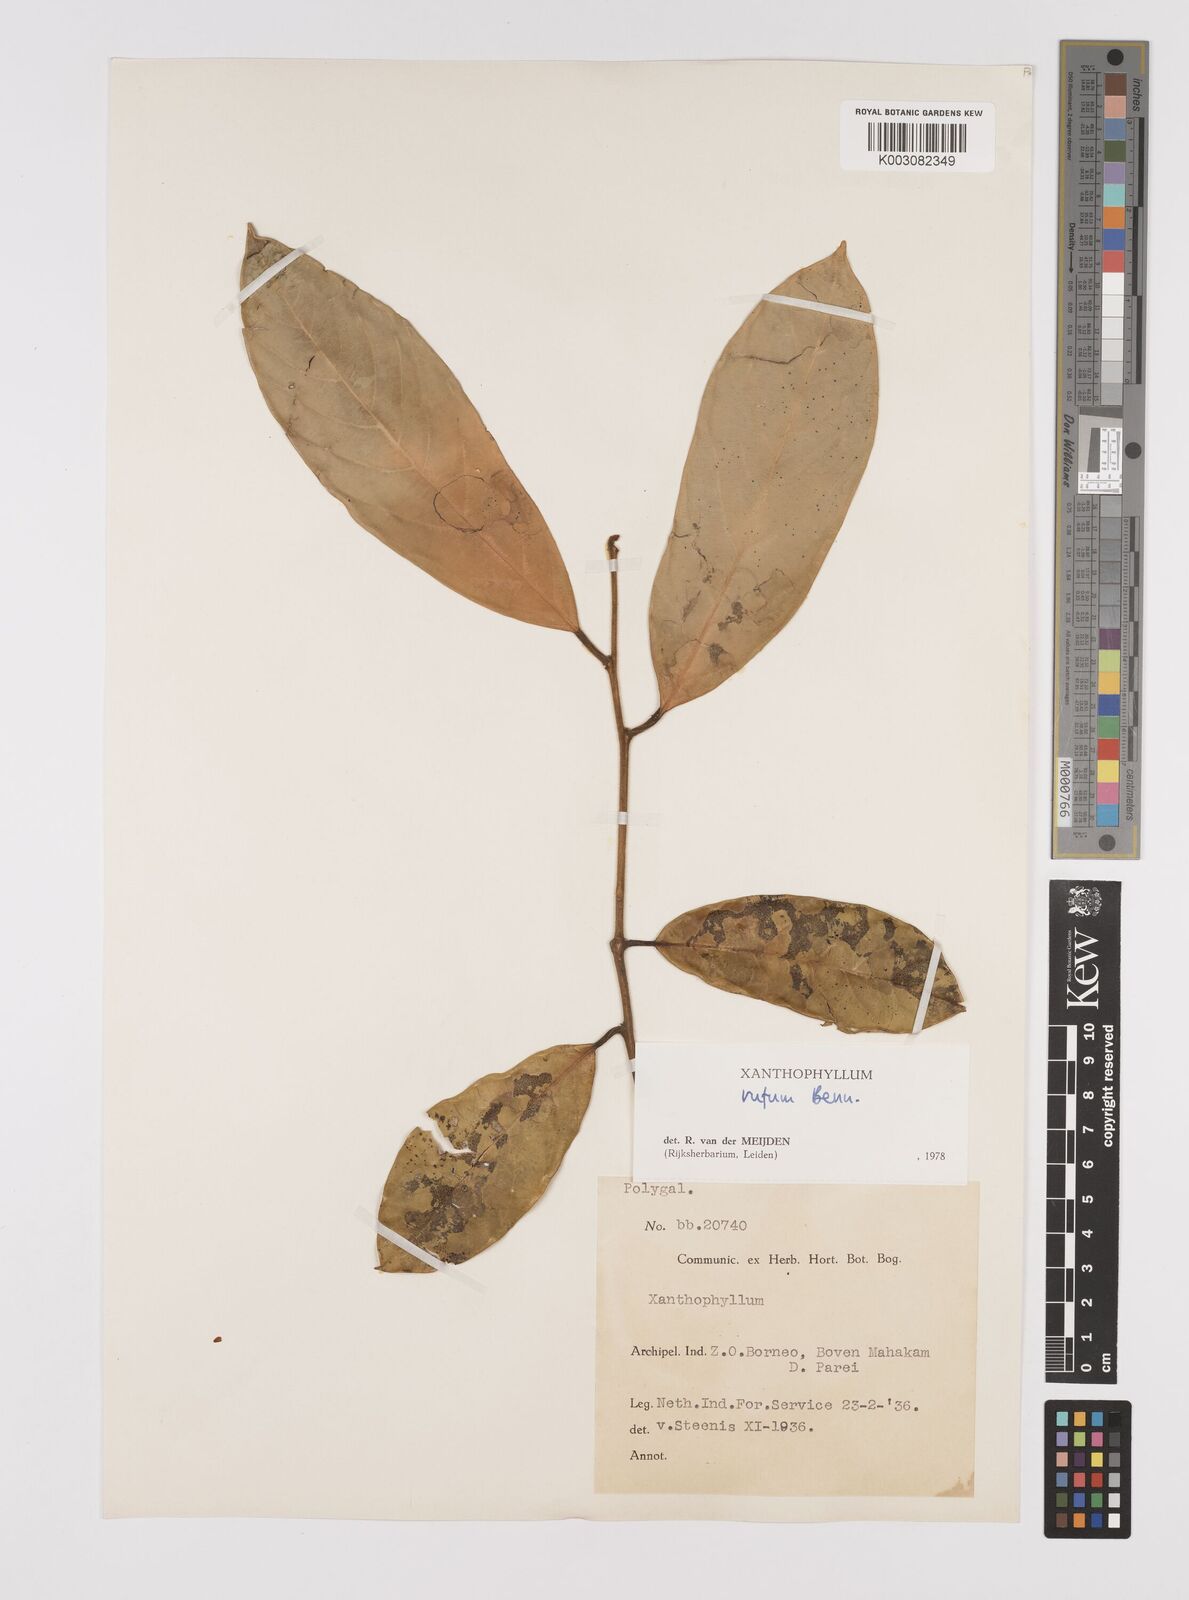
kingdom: Plantae
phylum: Tracheophyta
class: Magnoliopsida
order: Fabales
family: Polygalaceae
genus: Xanthophyllum
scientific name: Xanthophyllum rufum
